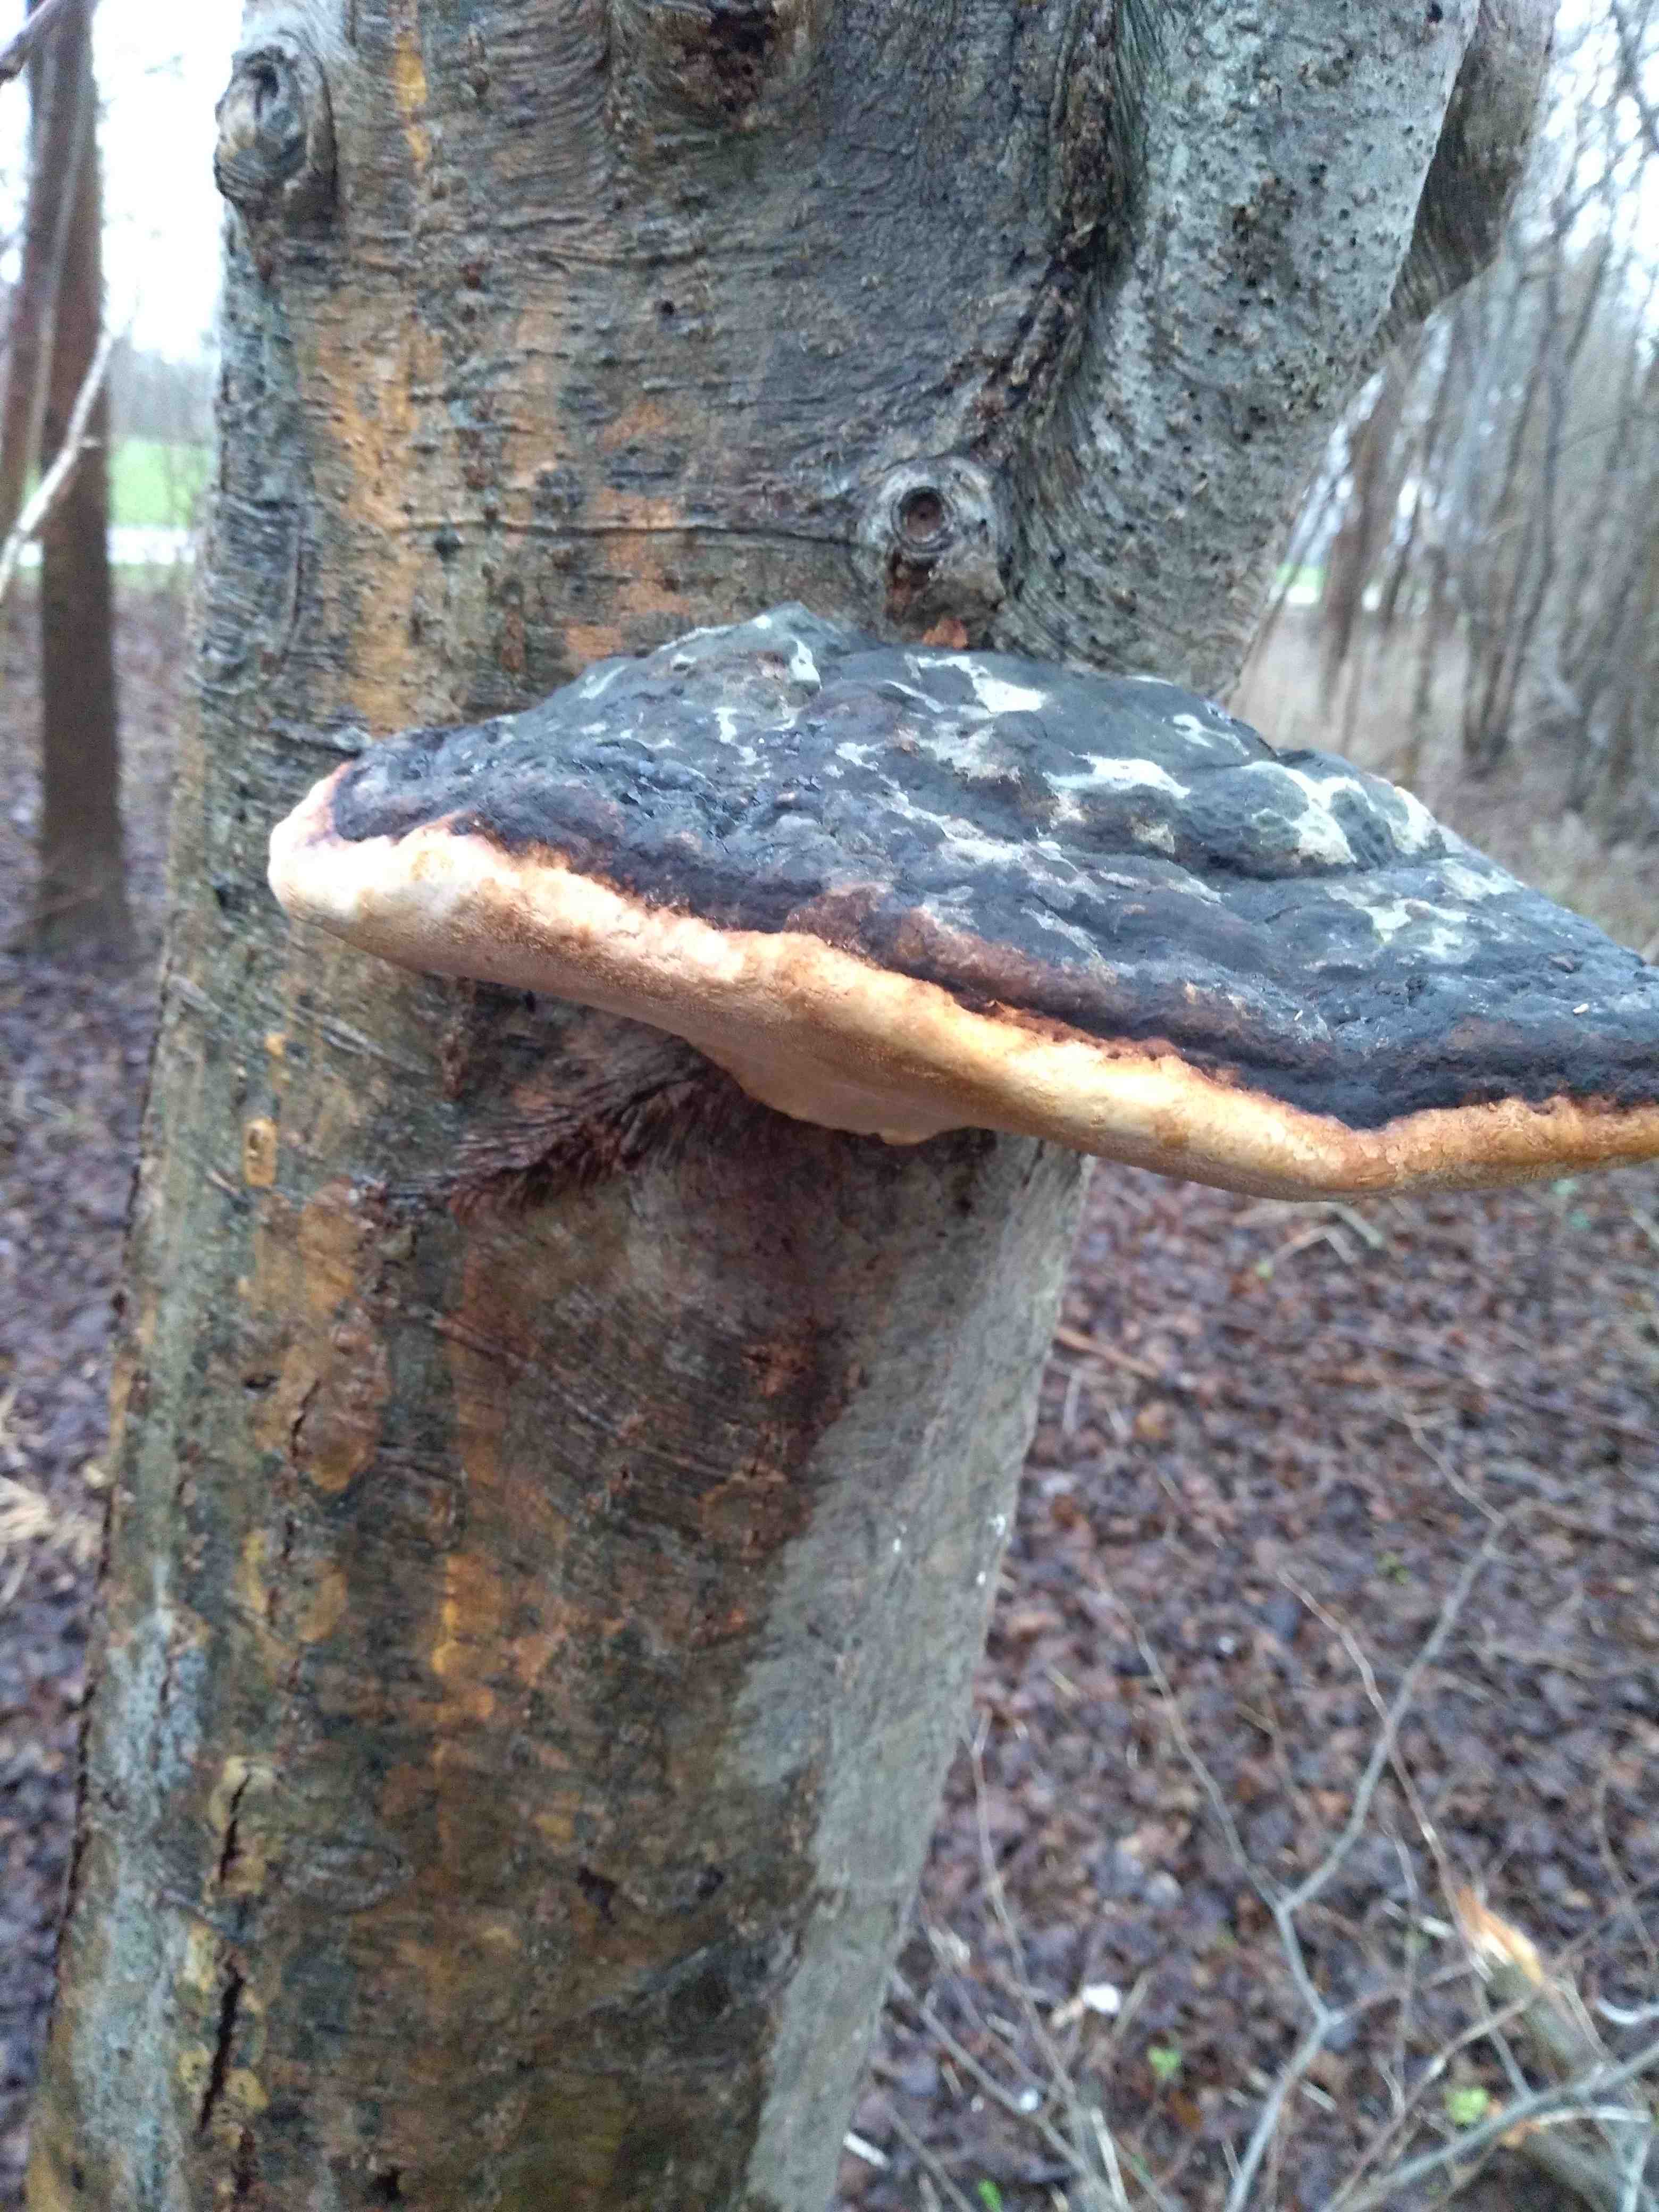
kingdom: Fungi
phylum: Basidiomycota
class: Agaricomycetes
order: Polyporales
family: Fomitopsidaceae
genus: Fomitopsis
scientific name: Fomitopsis pinicola
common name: randbæltet hovporesvamp
